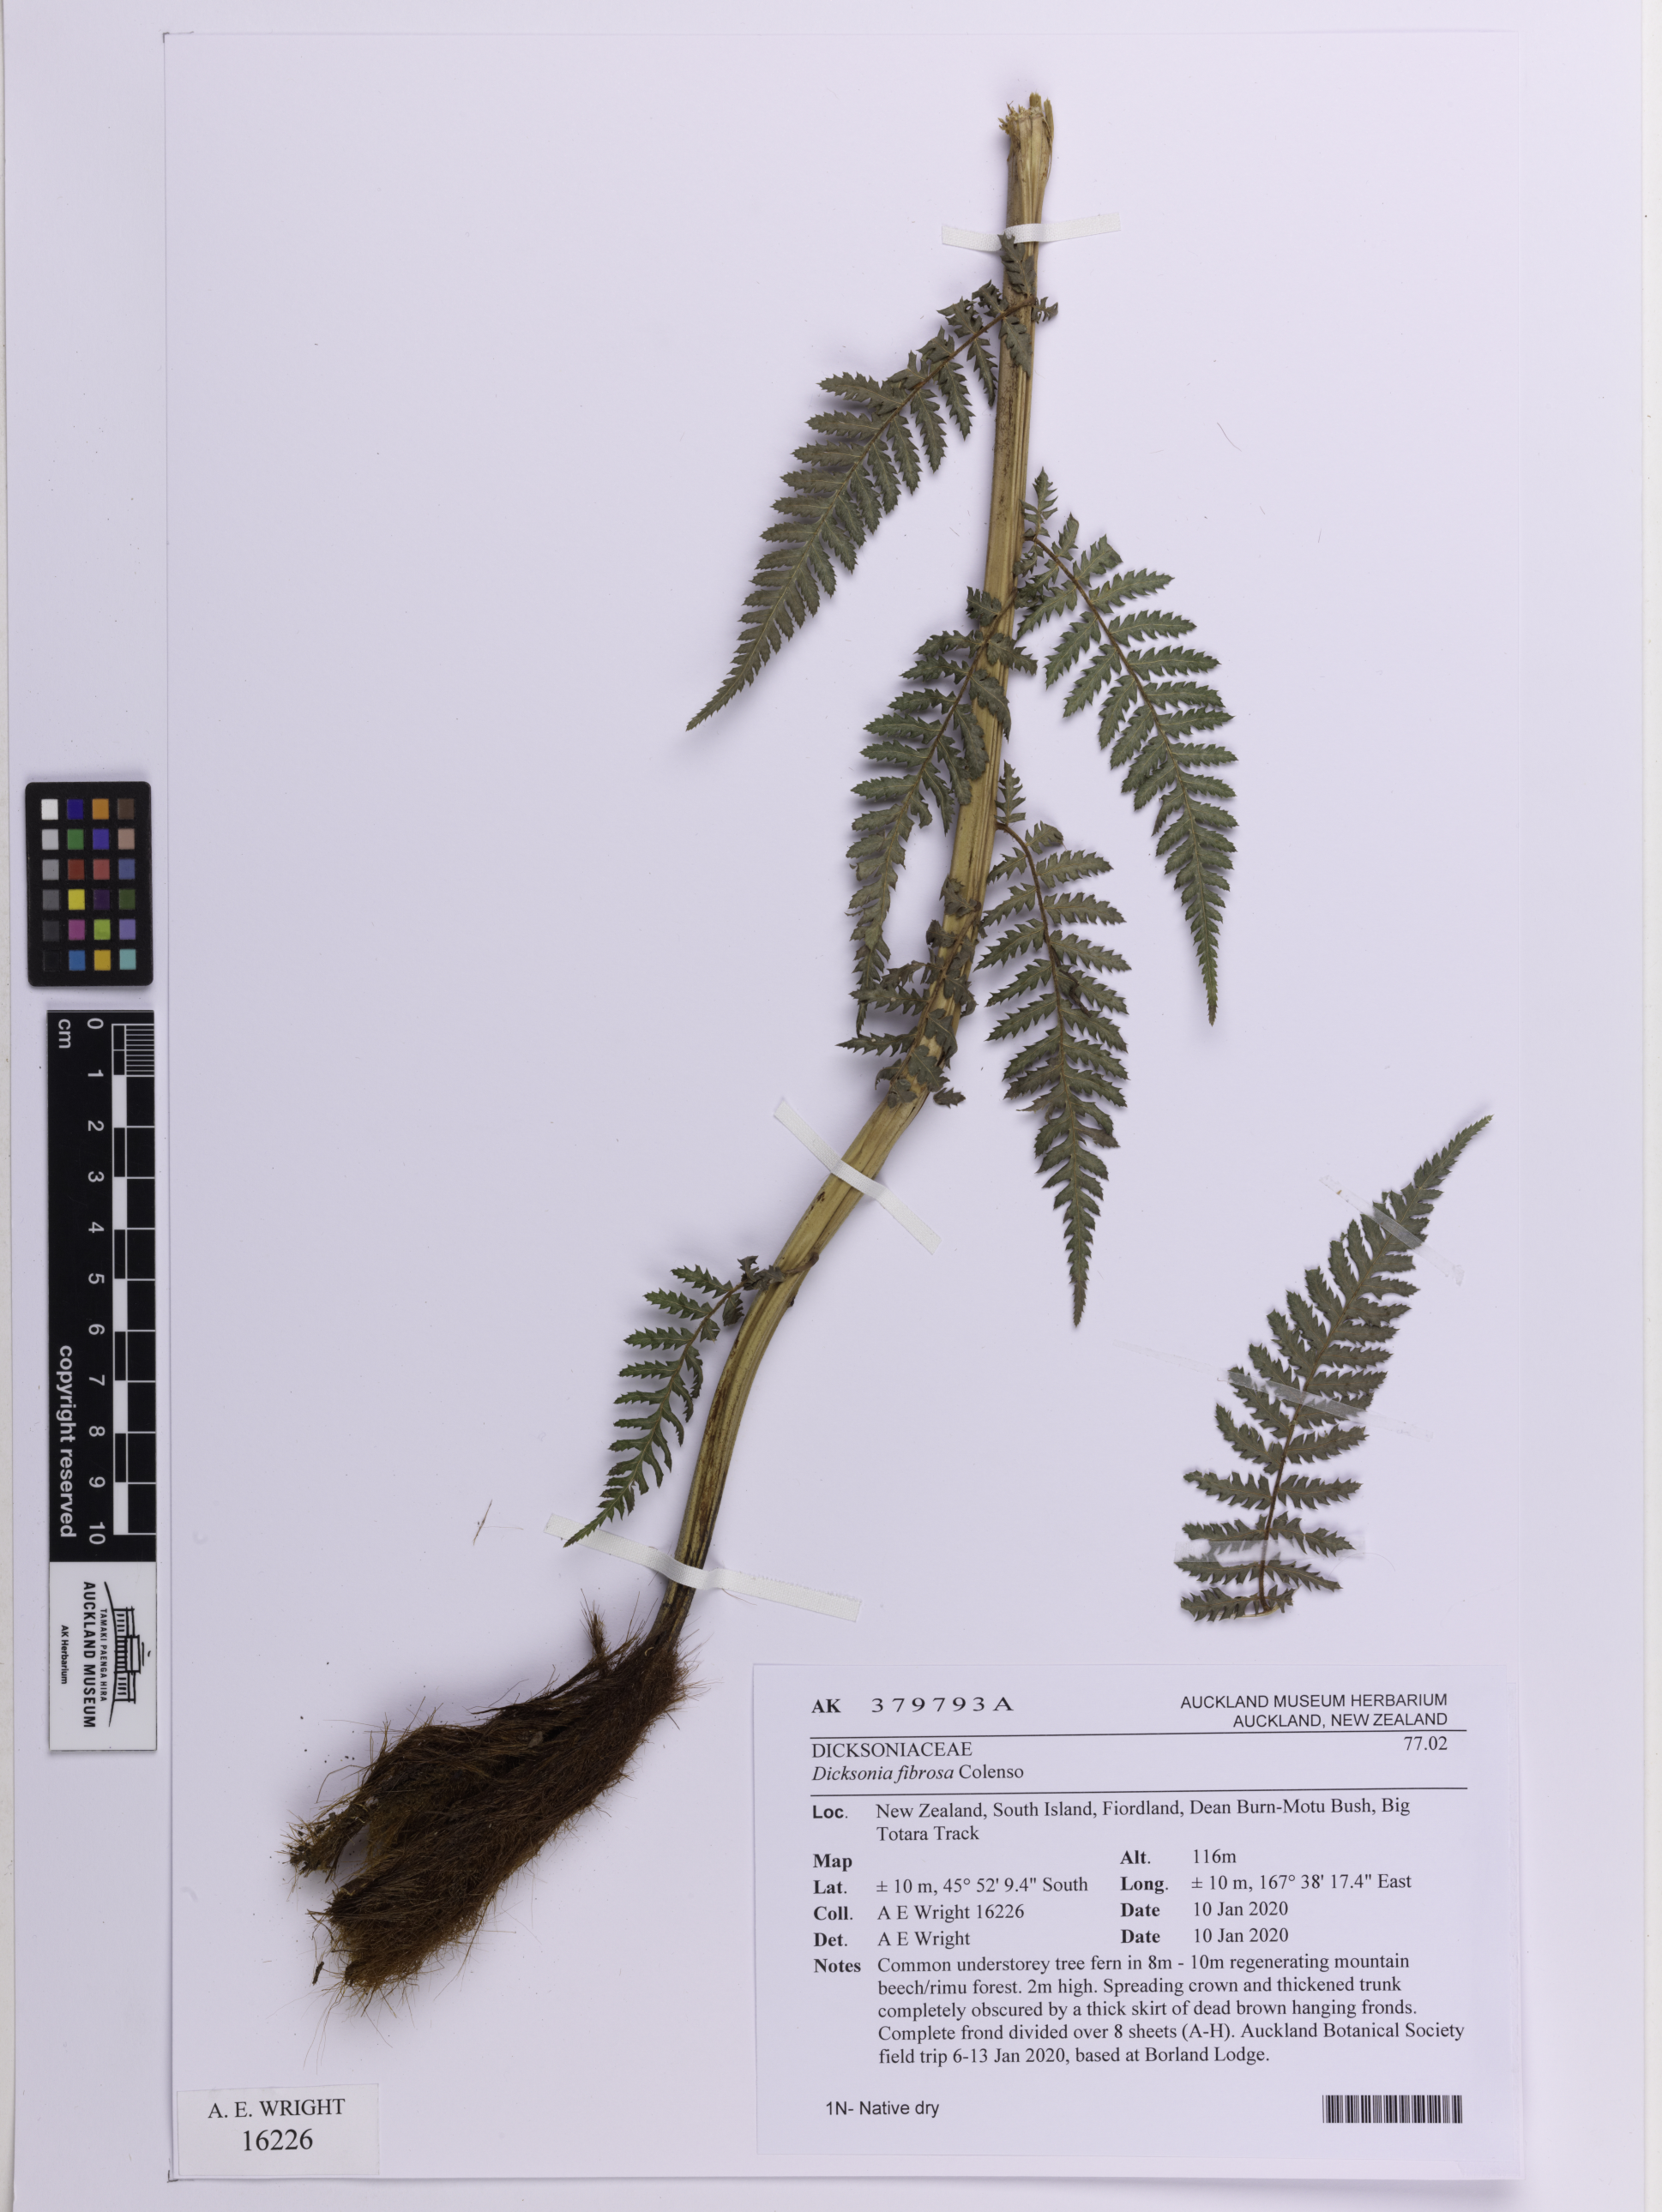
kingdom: Plantae
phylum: Tracheophyta
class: Polypodiopsida
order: Cyatheales
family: Dicksoniaceae
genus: Dicksonia
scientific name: Dicksonia fibrosa
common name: Golden tree fern
